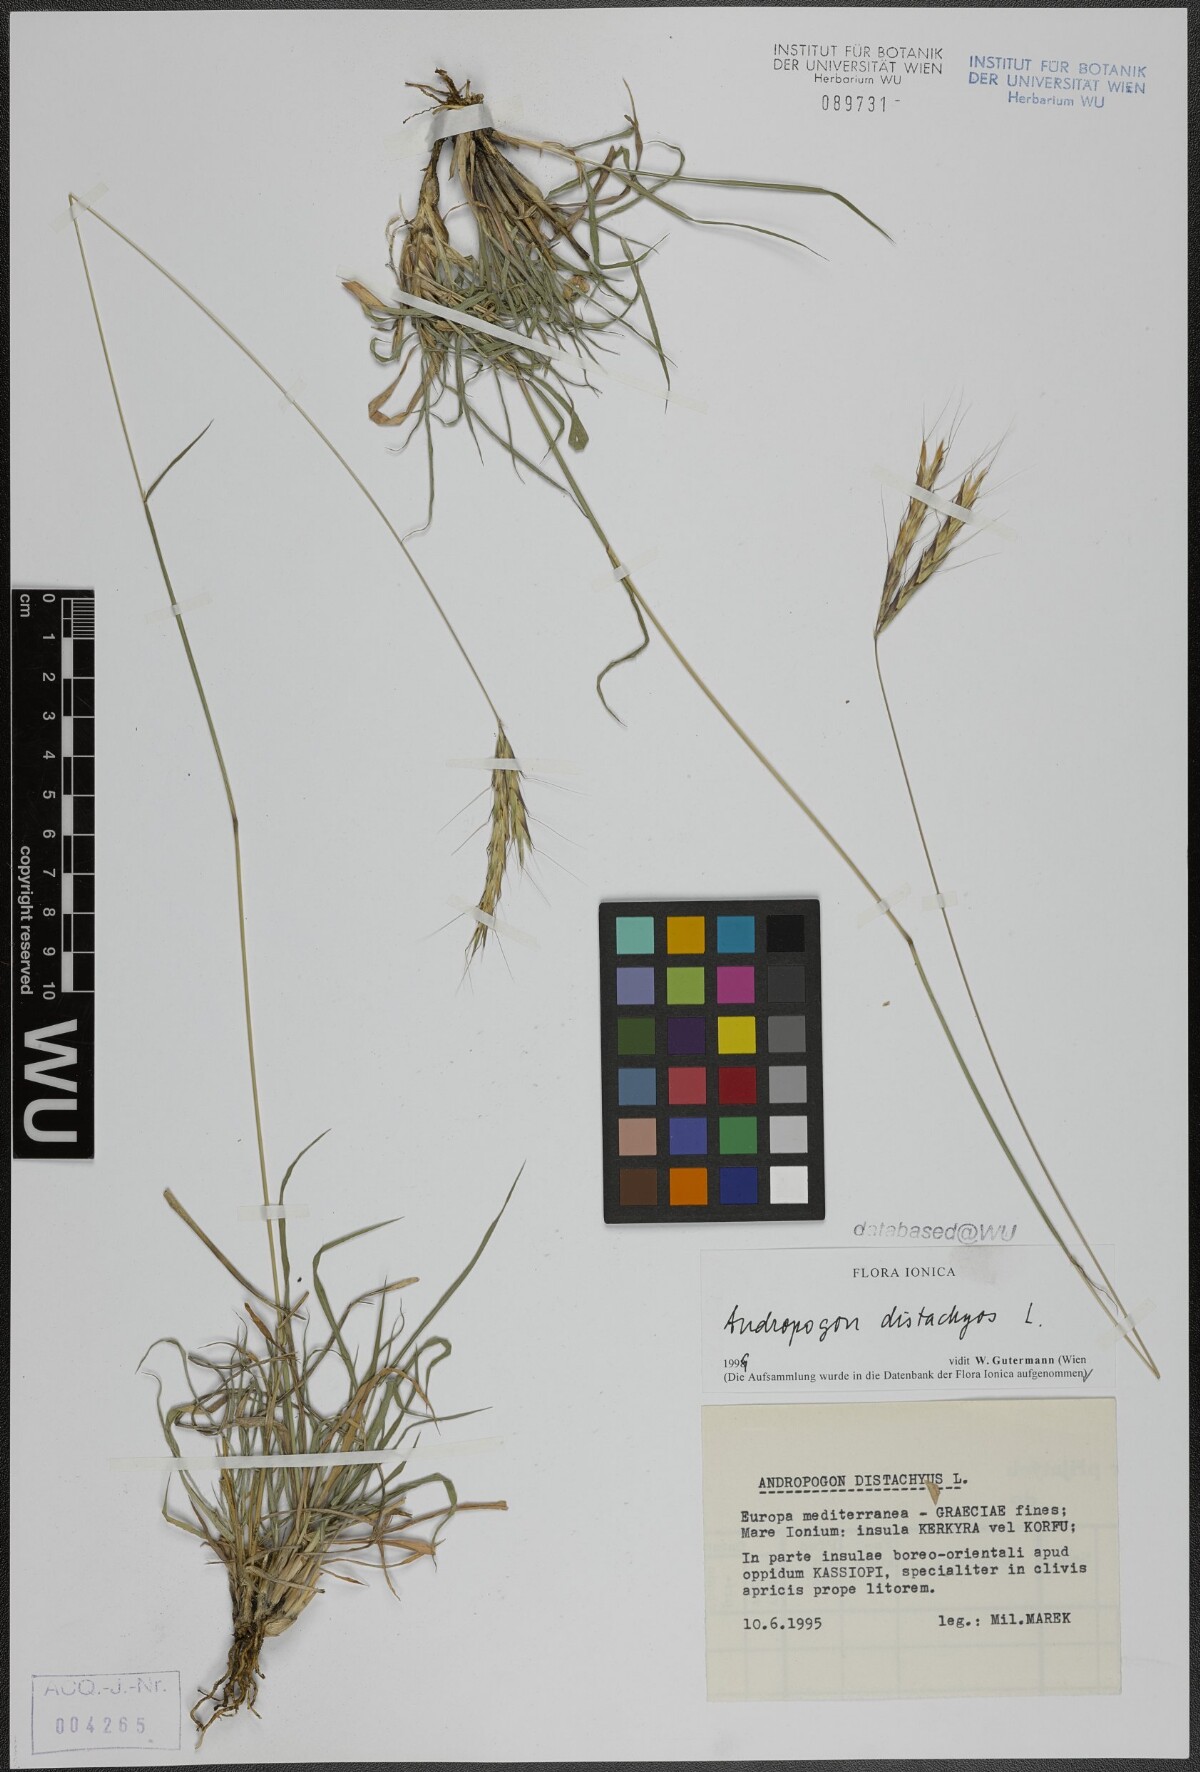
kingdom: Plantae
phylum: Tracheophyta
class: Liliopsida
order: Poales
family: Poaceae
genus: Andropogon
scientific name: Andropogon distachyos
